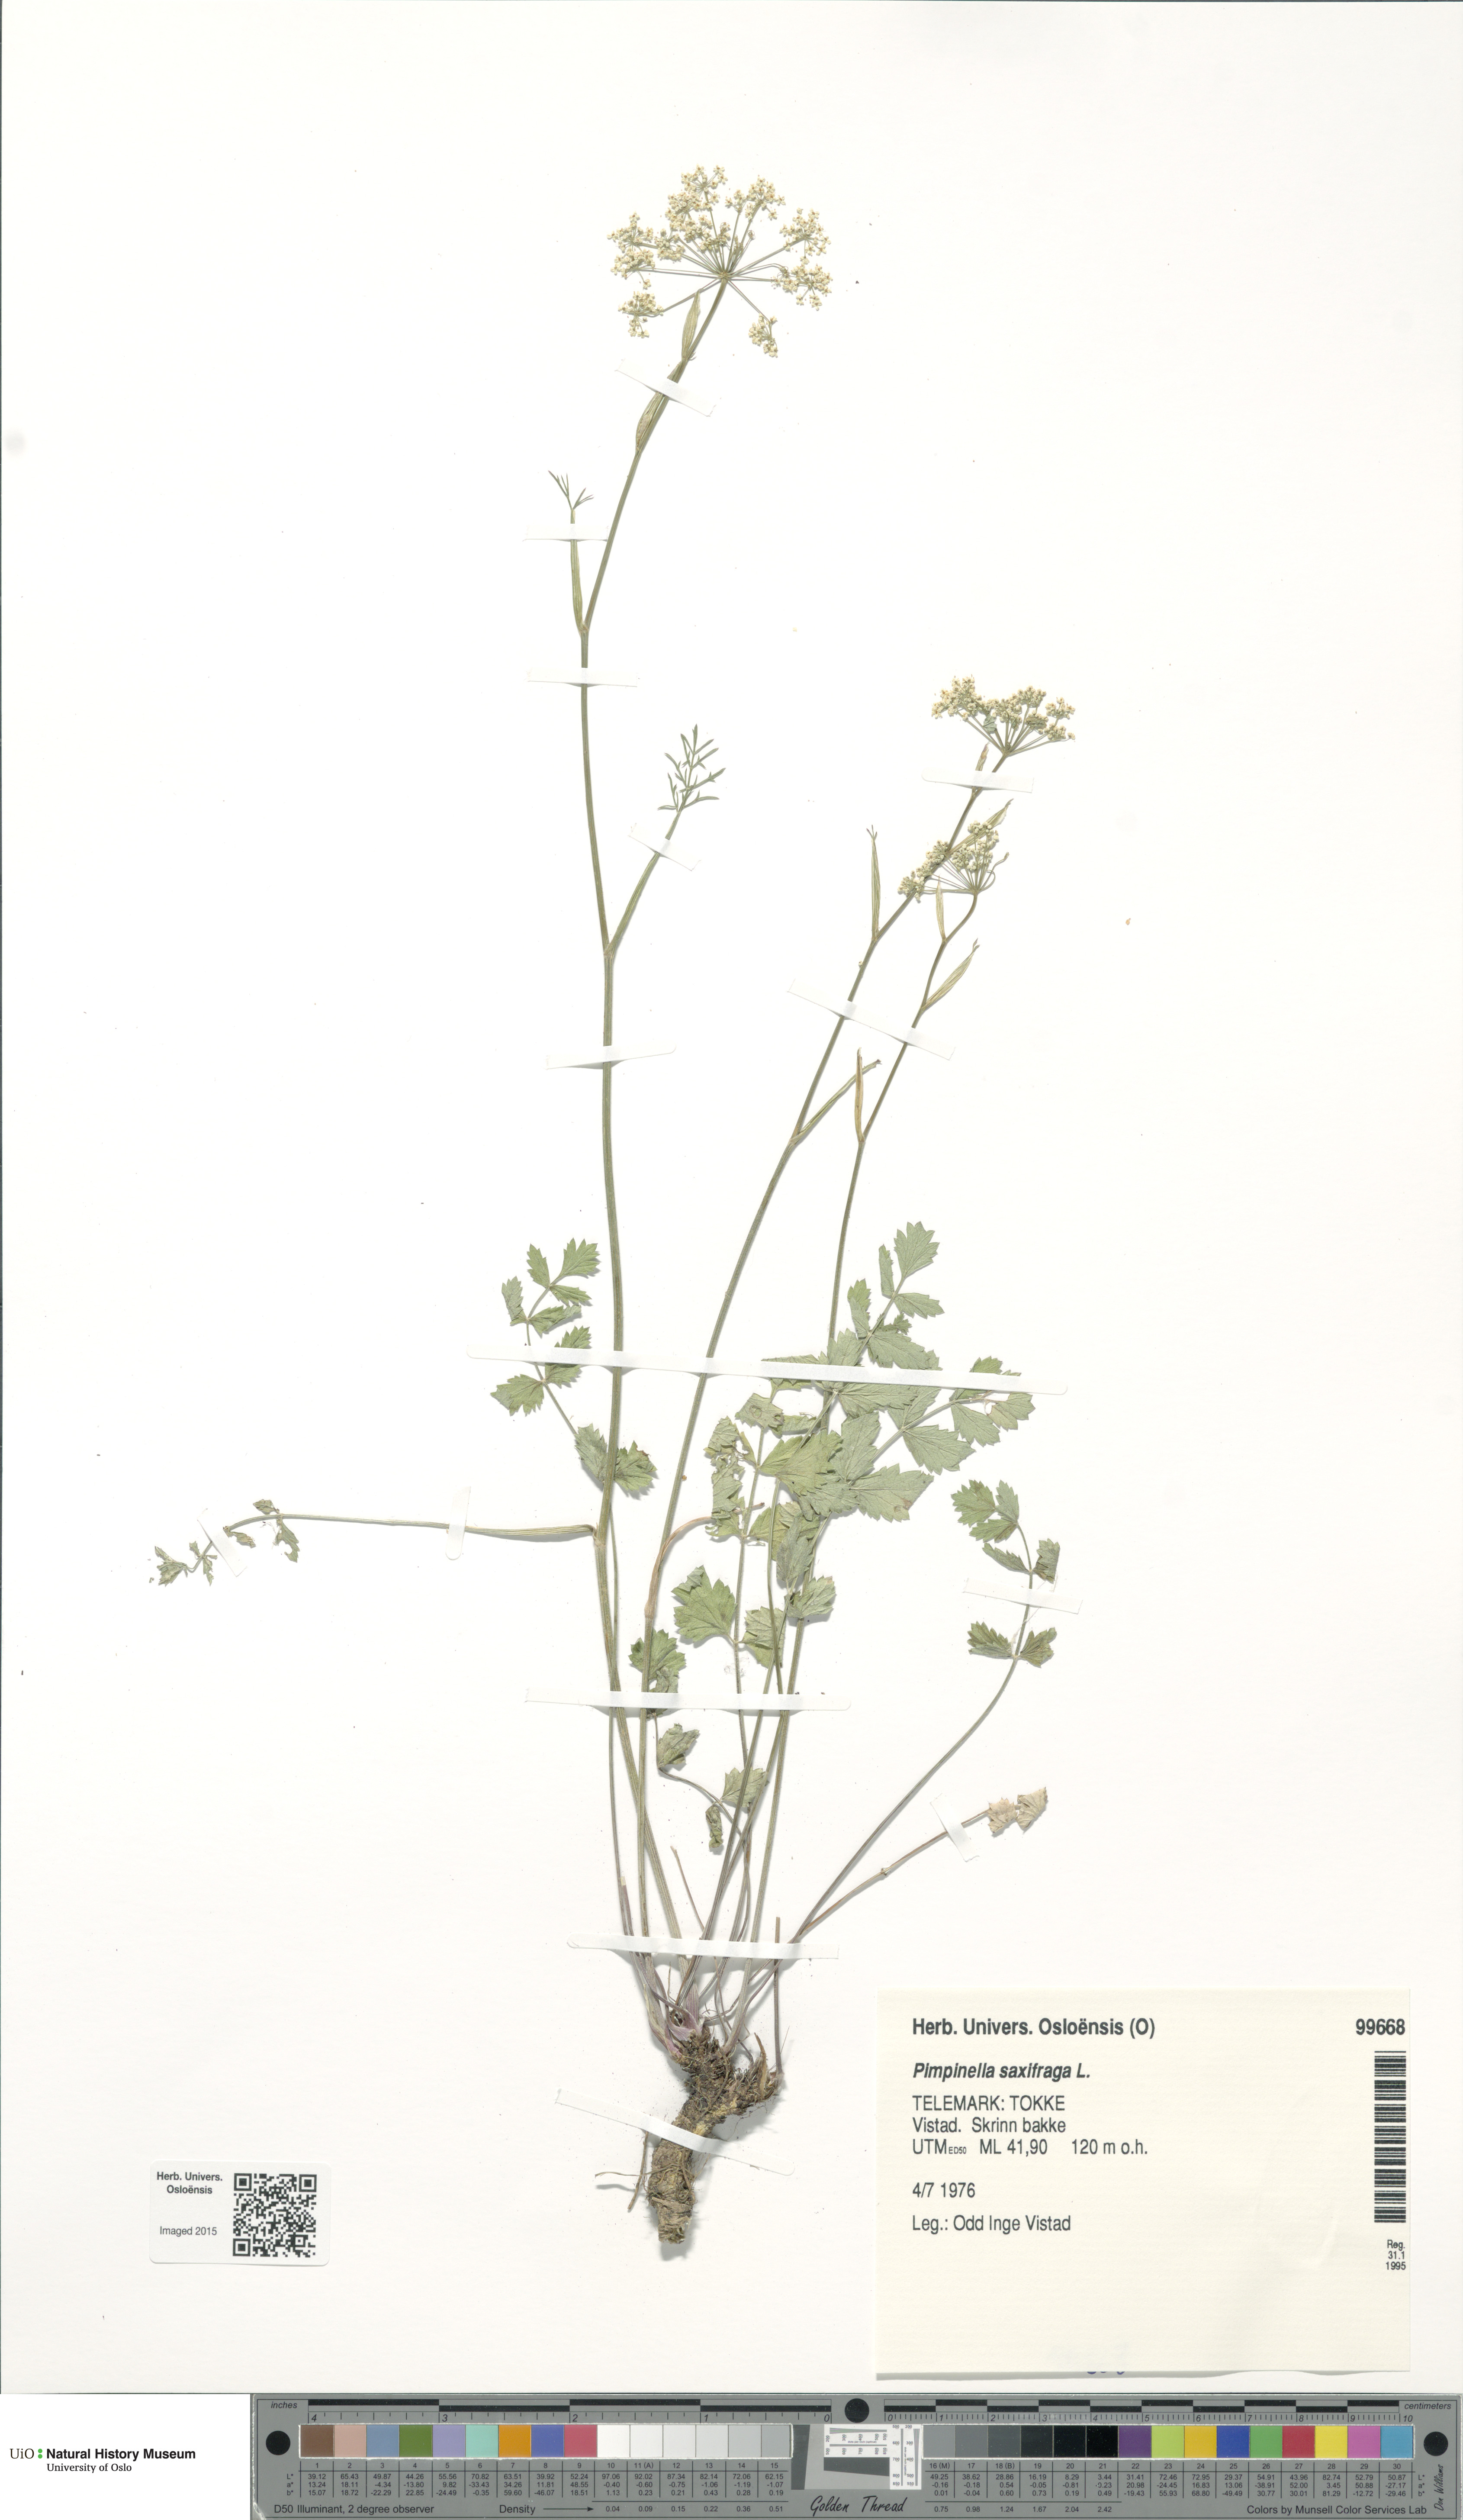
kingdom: Plantae
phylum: Tracheophyta
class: Magnoliopsida
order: Apiales
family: Apiaceae
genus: Pimpinella
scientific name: Pimpinella saxifraga
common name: Burnet-saxifrage
